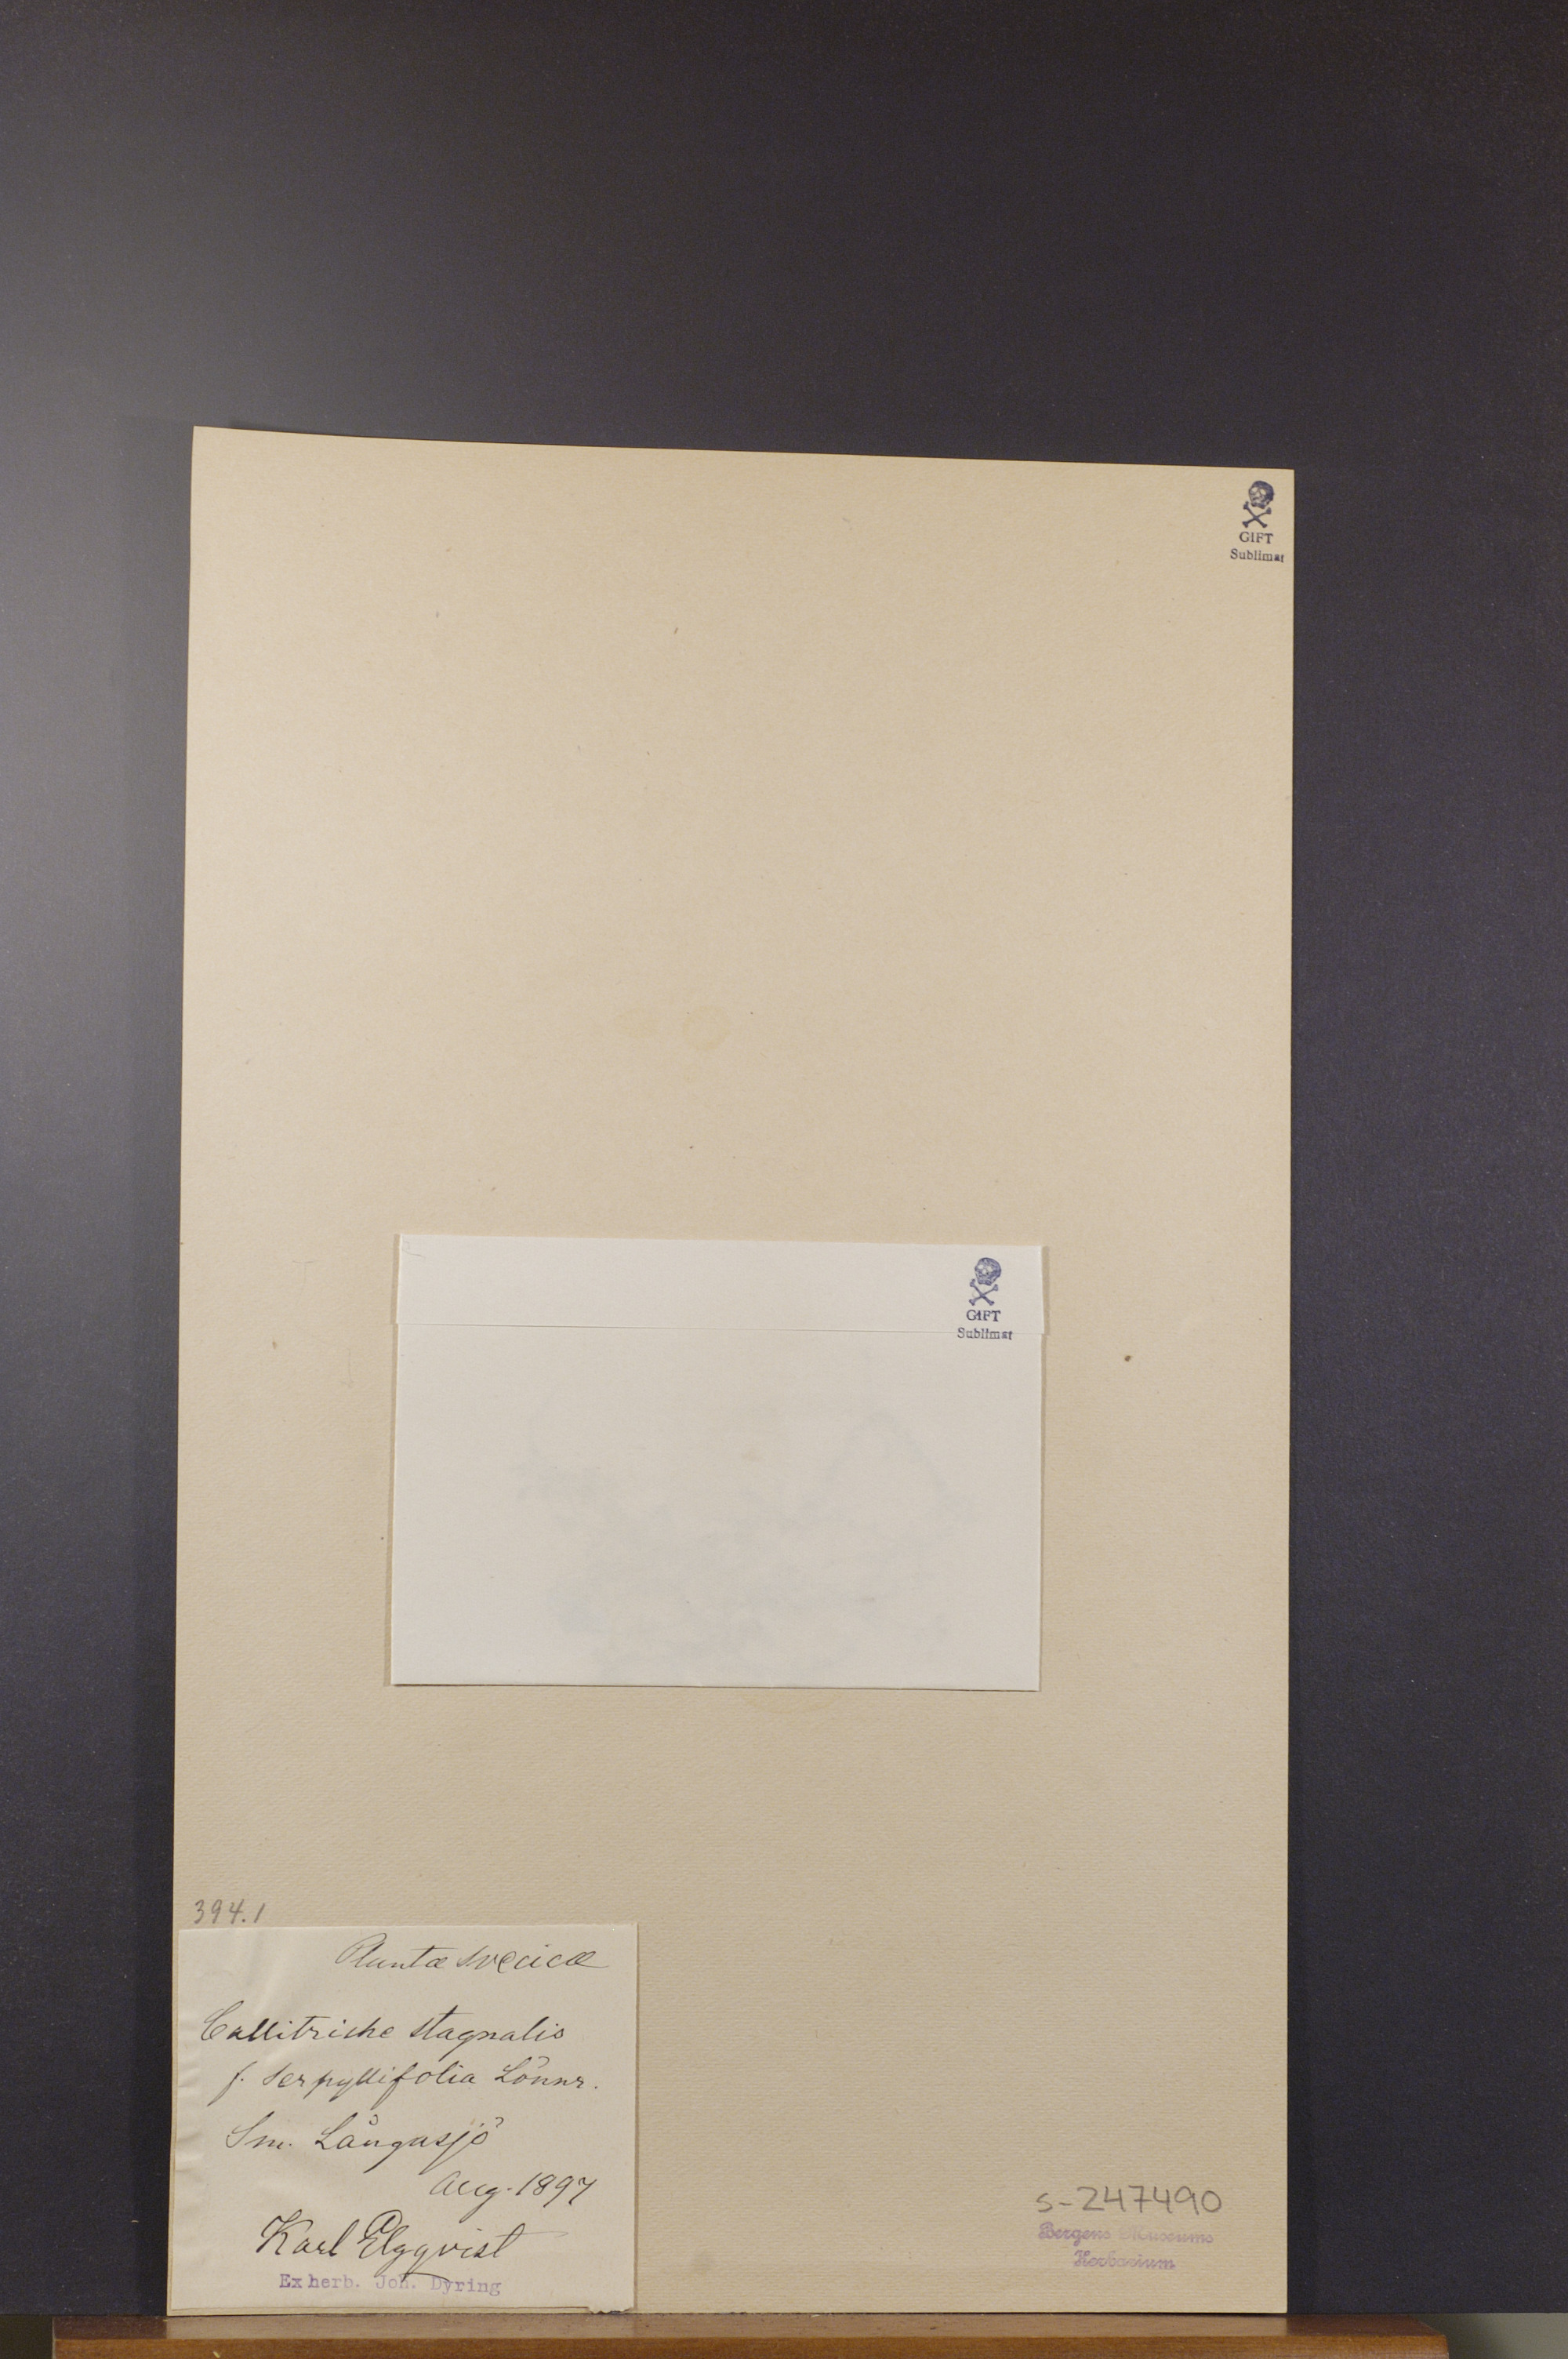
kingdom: Plantae
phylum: Tracheophyta
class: Magnoliopsida
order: Lamiales
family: Plantaginaceae
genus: Callitriche
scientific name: Callitriche stagnalis
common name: Common water-starwort
